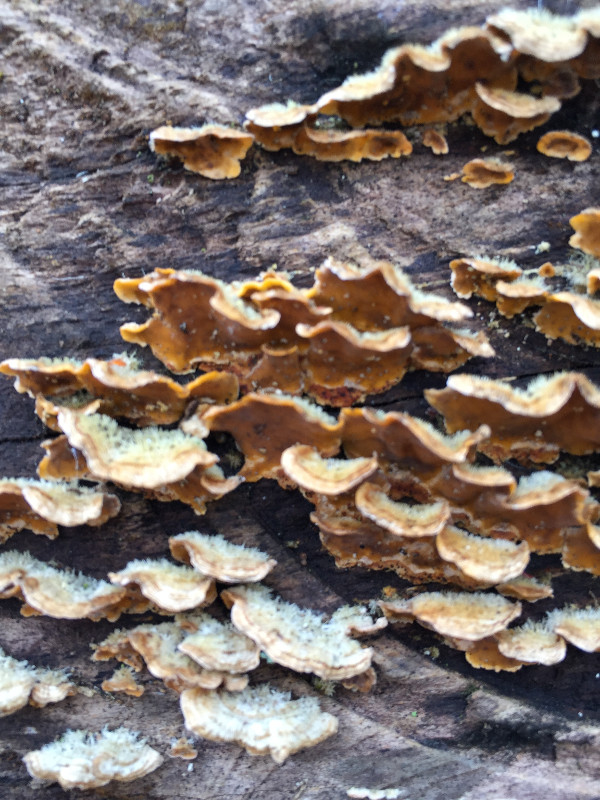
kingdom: Fungi
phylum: Basidiomycota
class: Agaricomycetes
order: Russulales
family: Stereaceae
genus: Stereum
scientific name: Stereum hirsutum
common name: håret lædersvamp
